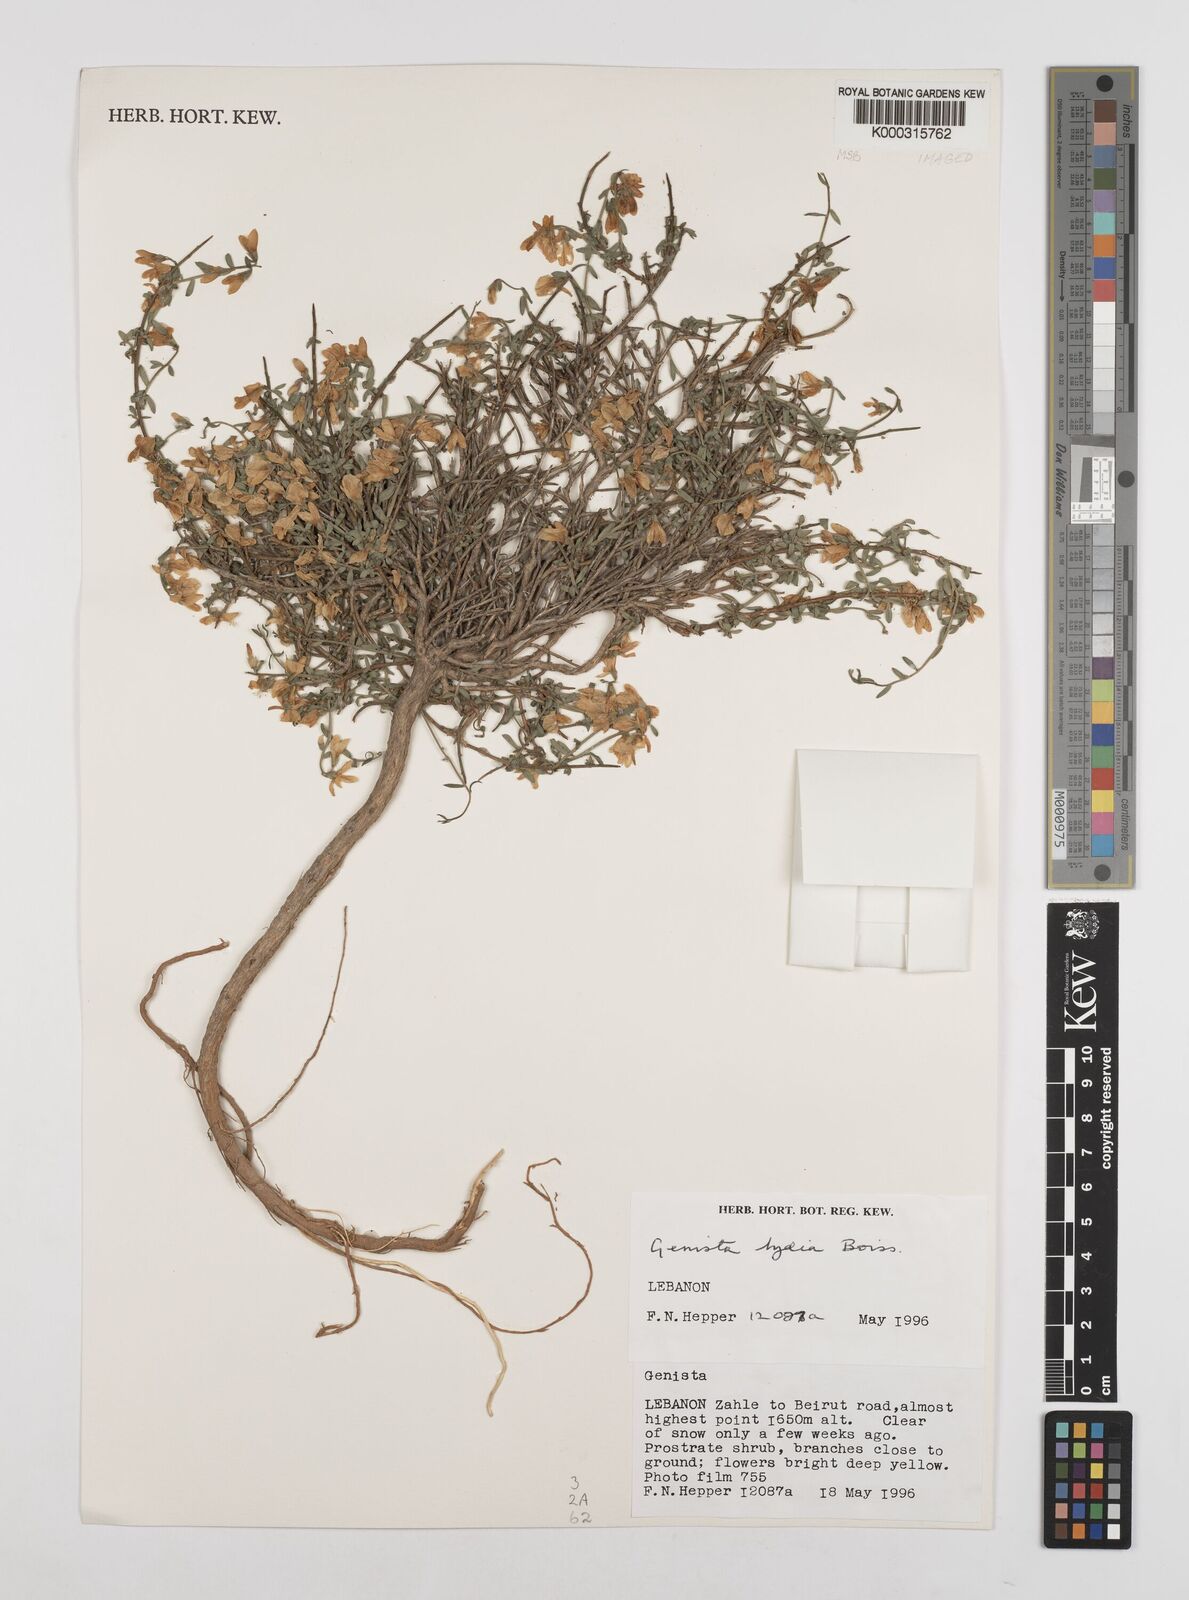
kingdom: Plantae
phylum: Tracheophyta
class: Magnoliopsida
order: Fabales
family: Fabaceae
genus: Genista
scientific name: Genista lydia
